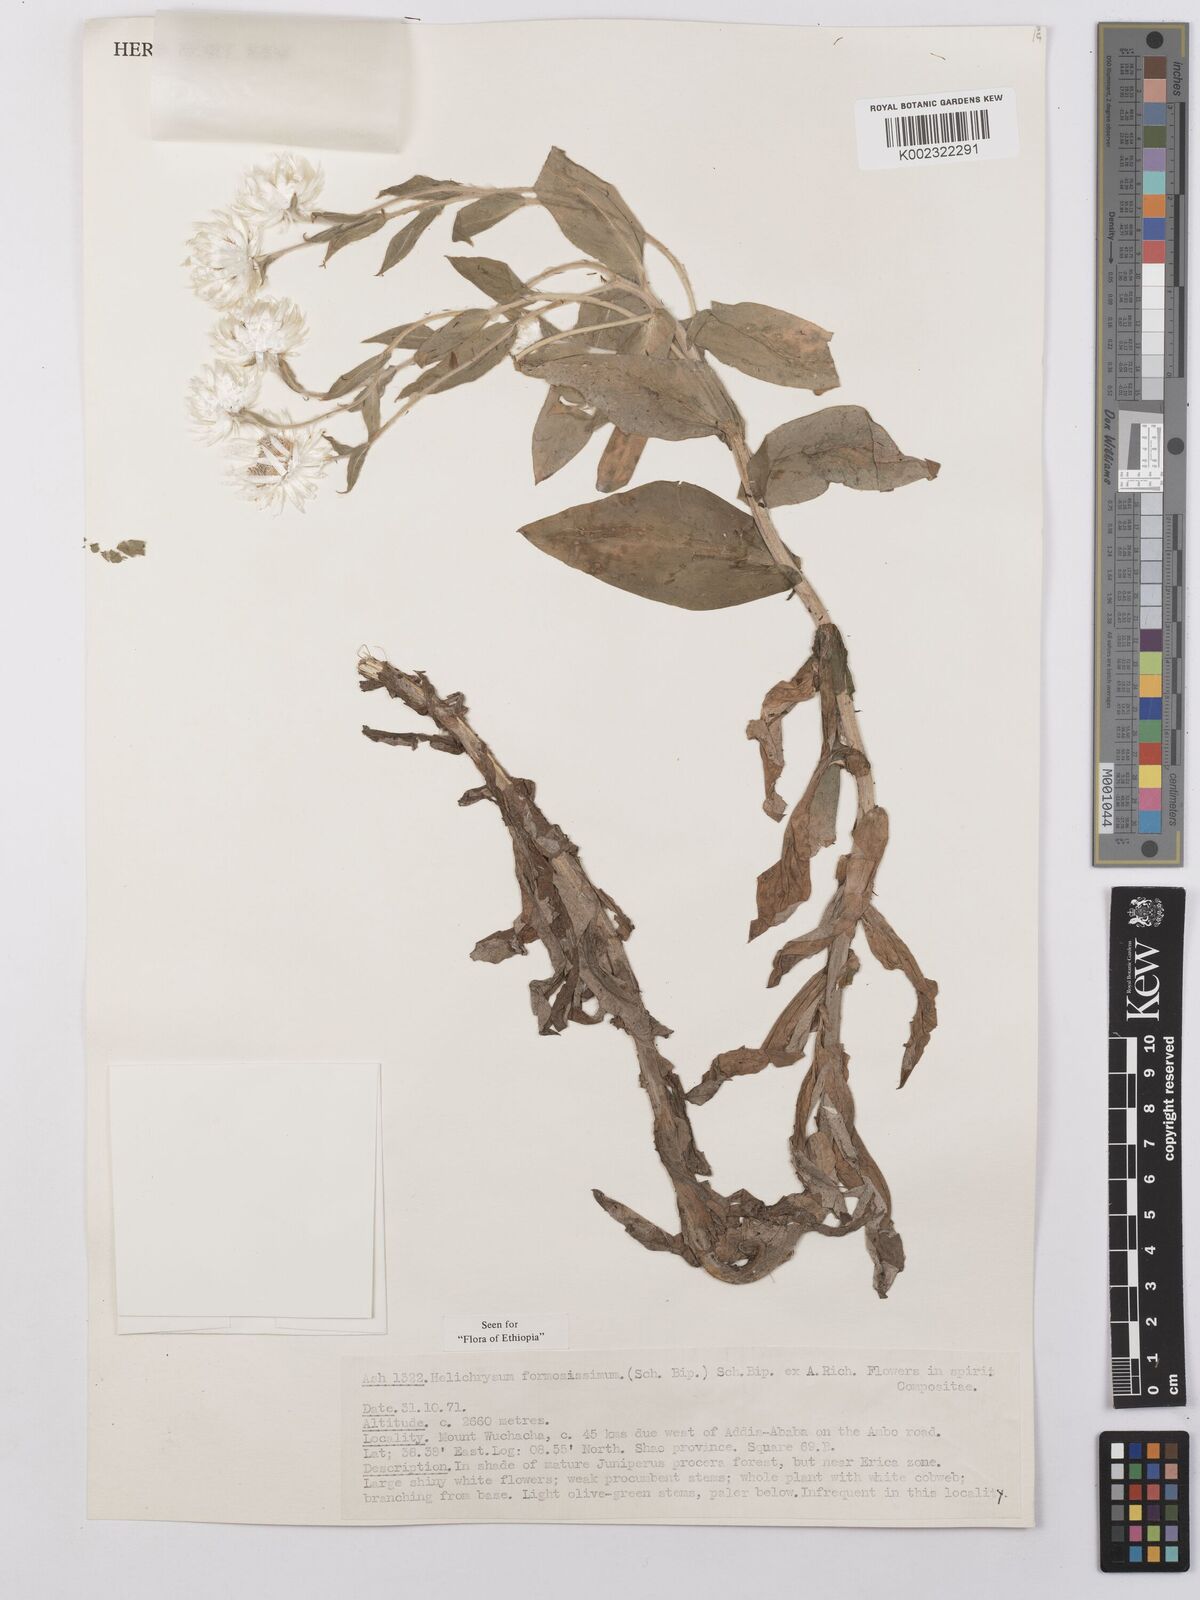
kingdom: Plantae
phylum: Tracheophyta
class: Magnoliopsida
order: Asterales
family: Asteraceae
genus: Helichrysum
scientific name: Helichrysum formosissimum
